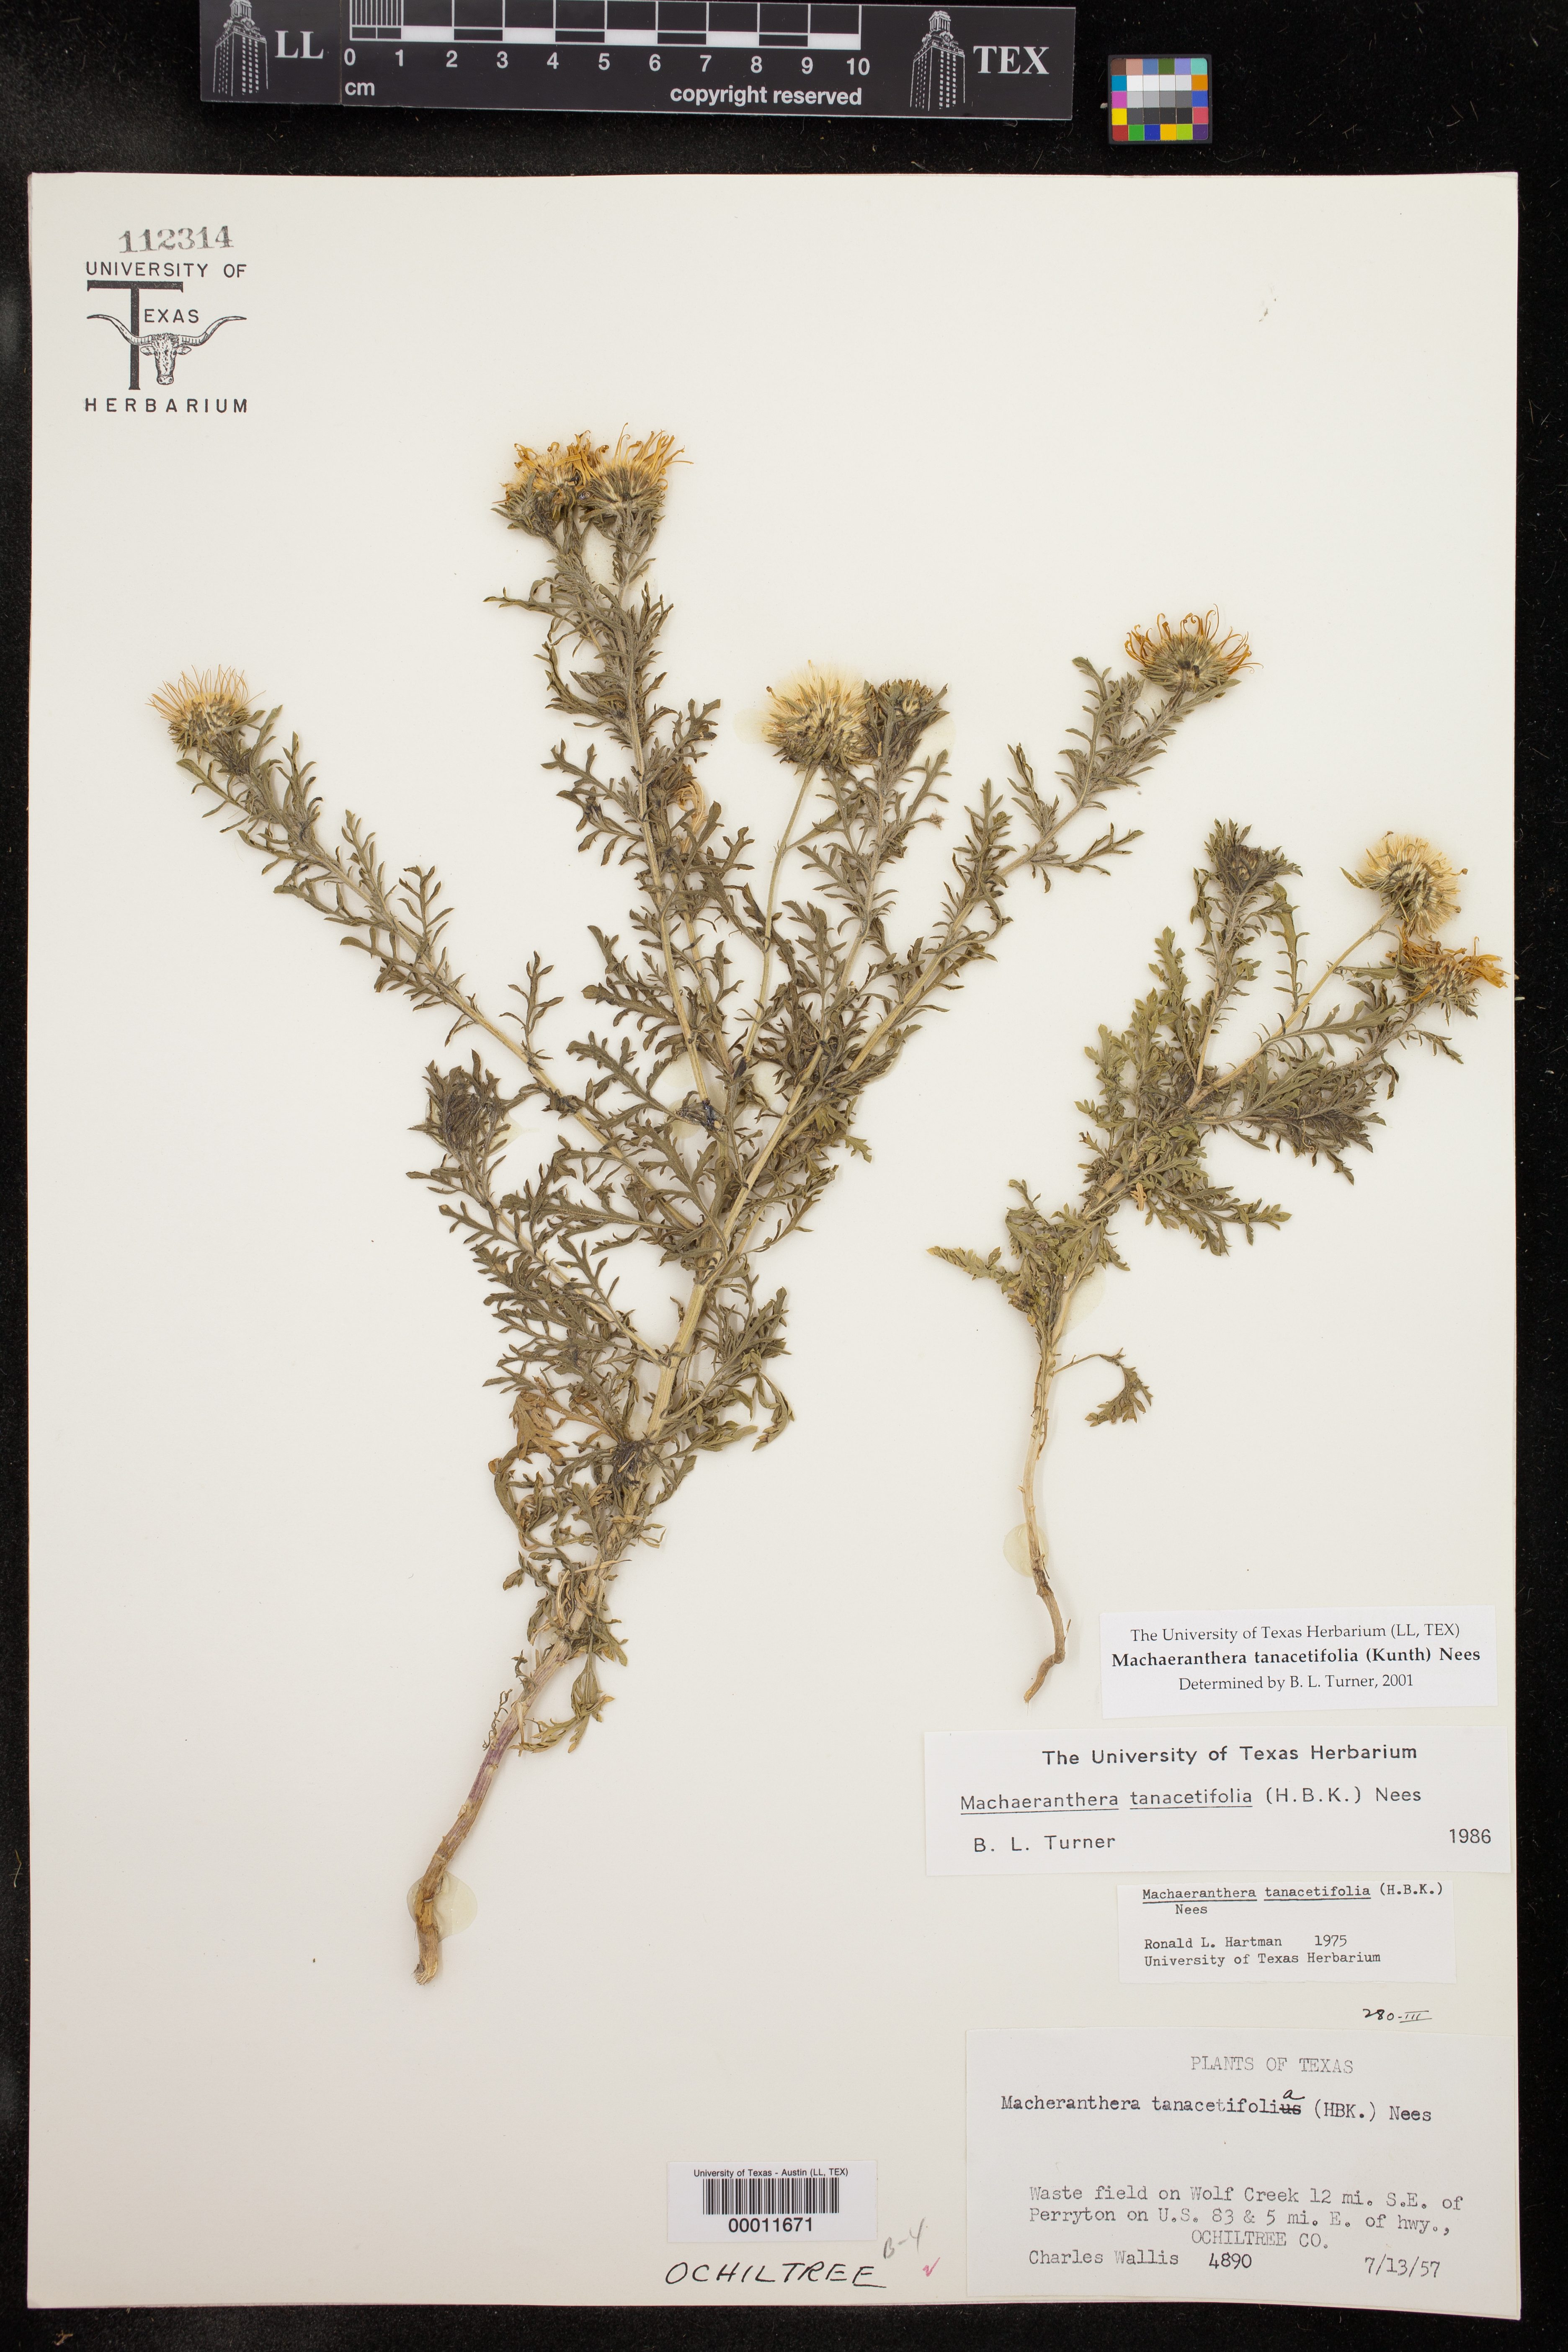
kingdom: Plantae
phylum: Tracheophyta
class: Magnoliopsida
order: Asterales
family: Asteraceae
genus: Machaeranthera
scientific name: Machaeranthera tanacetifolia
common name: Tansy-aster
